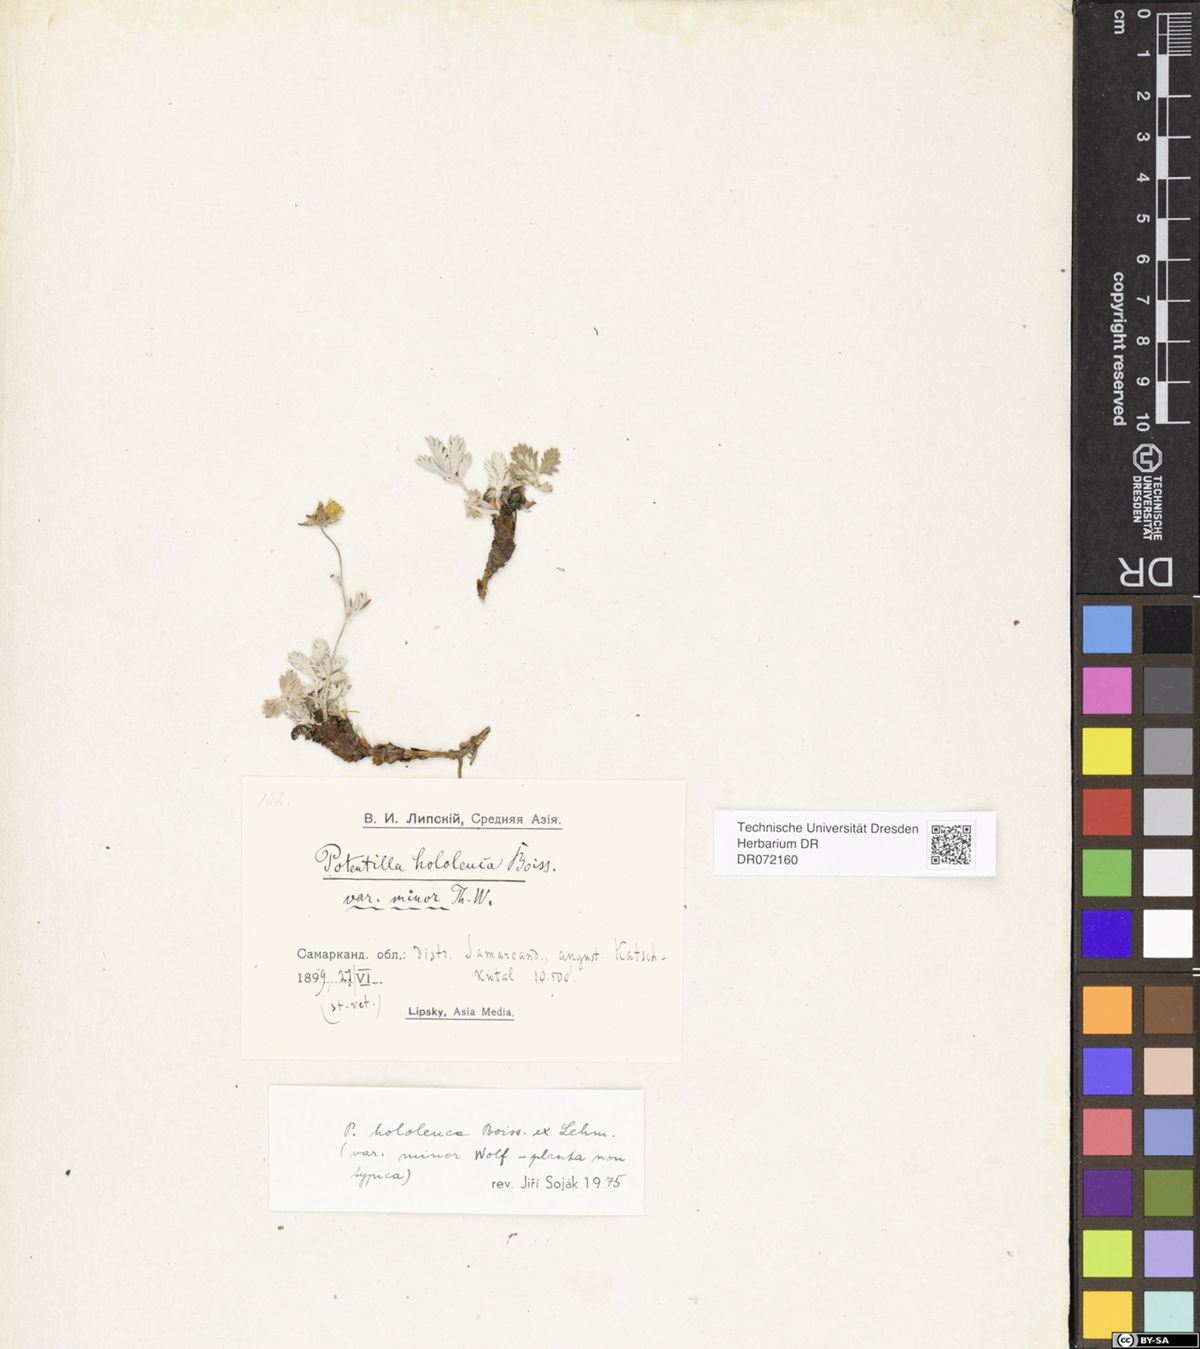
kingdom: Plantae
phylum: Tracheophyta
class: Magnoliopsida
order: Rosales
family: Rosaceae
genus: Potentilla
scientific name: Potentilla hololeuca
